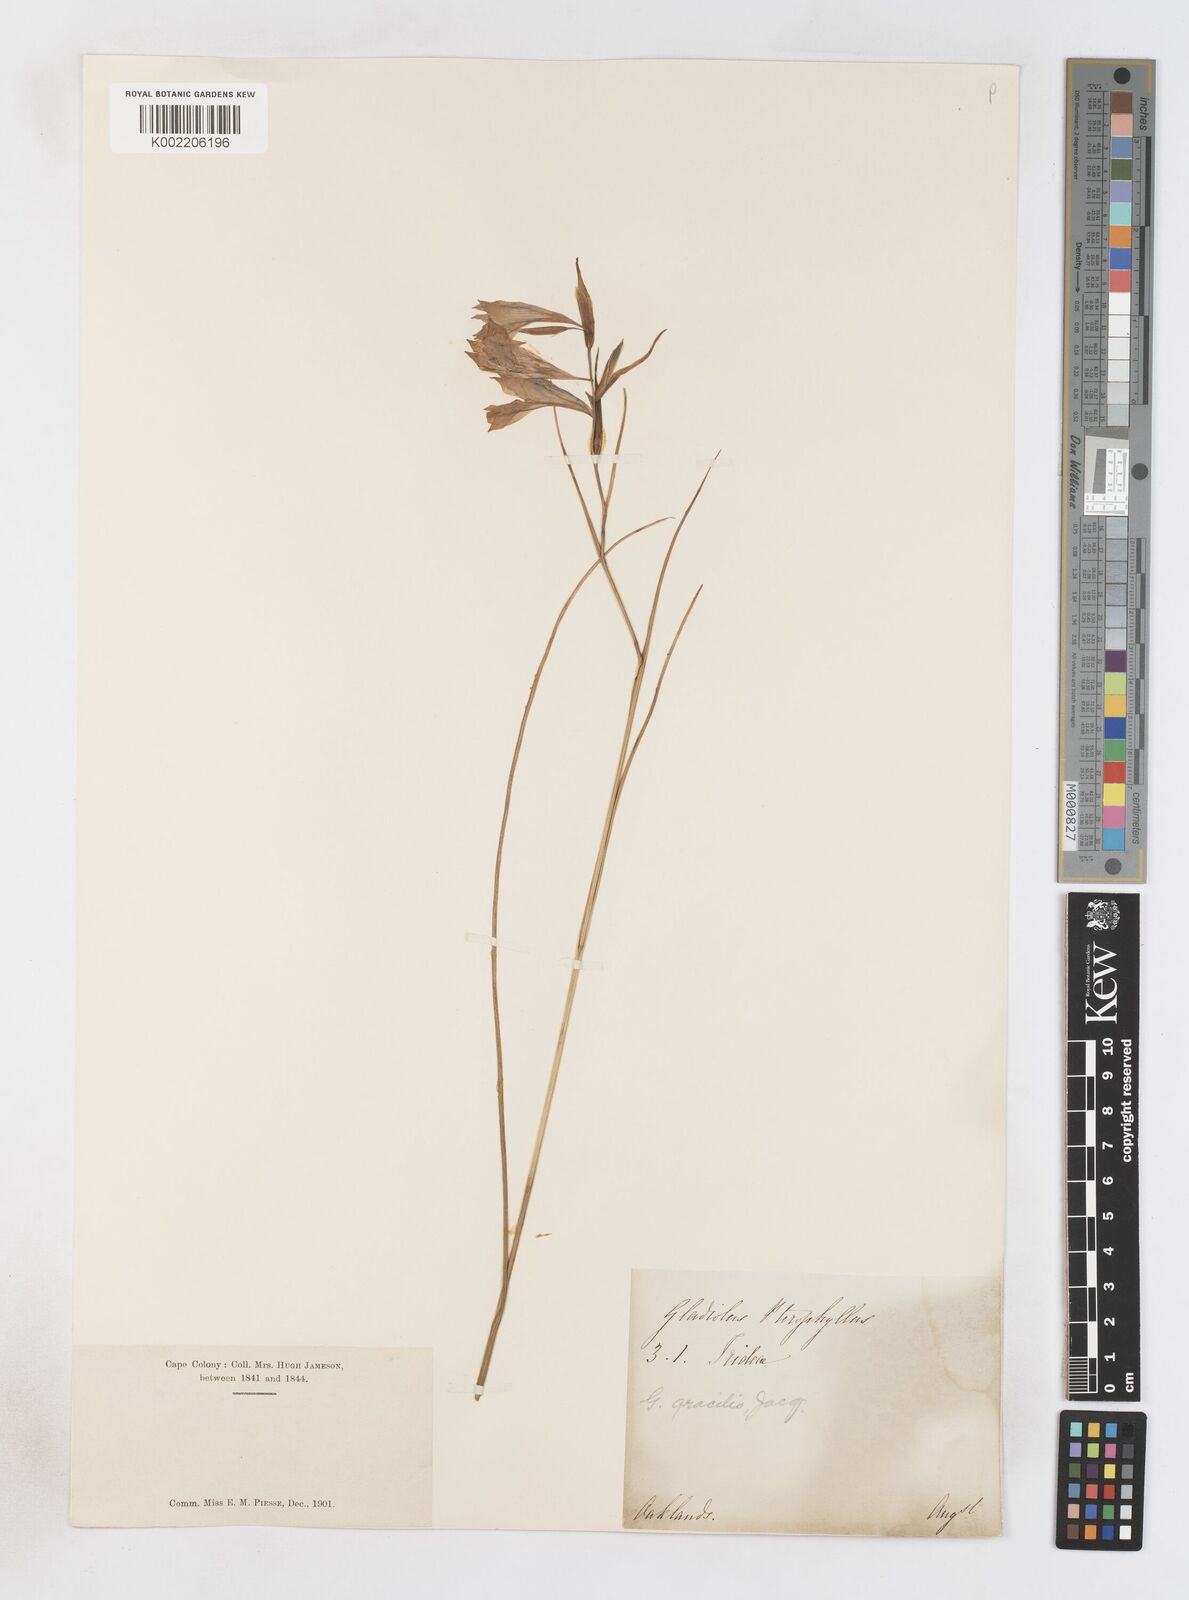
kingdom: Plantae
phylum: Tracheophyta
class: Liliopsida
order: Asparagales
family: Iridaceae
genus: Gladiolus
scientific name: Gladiolus gracilis
